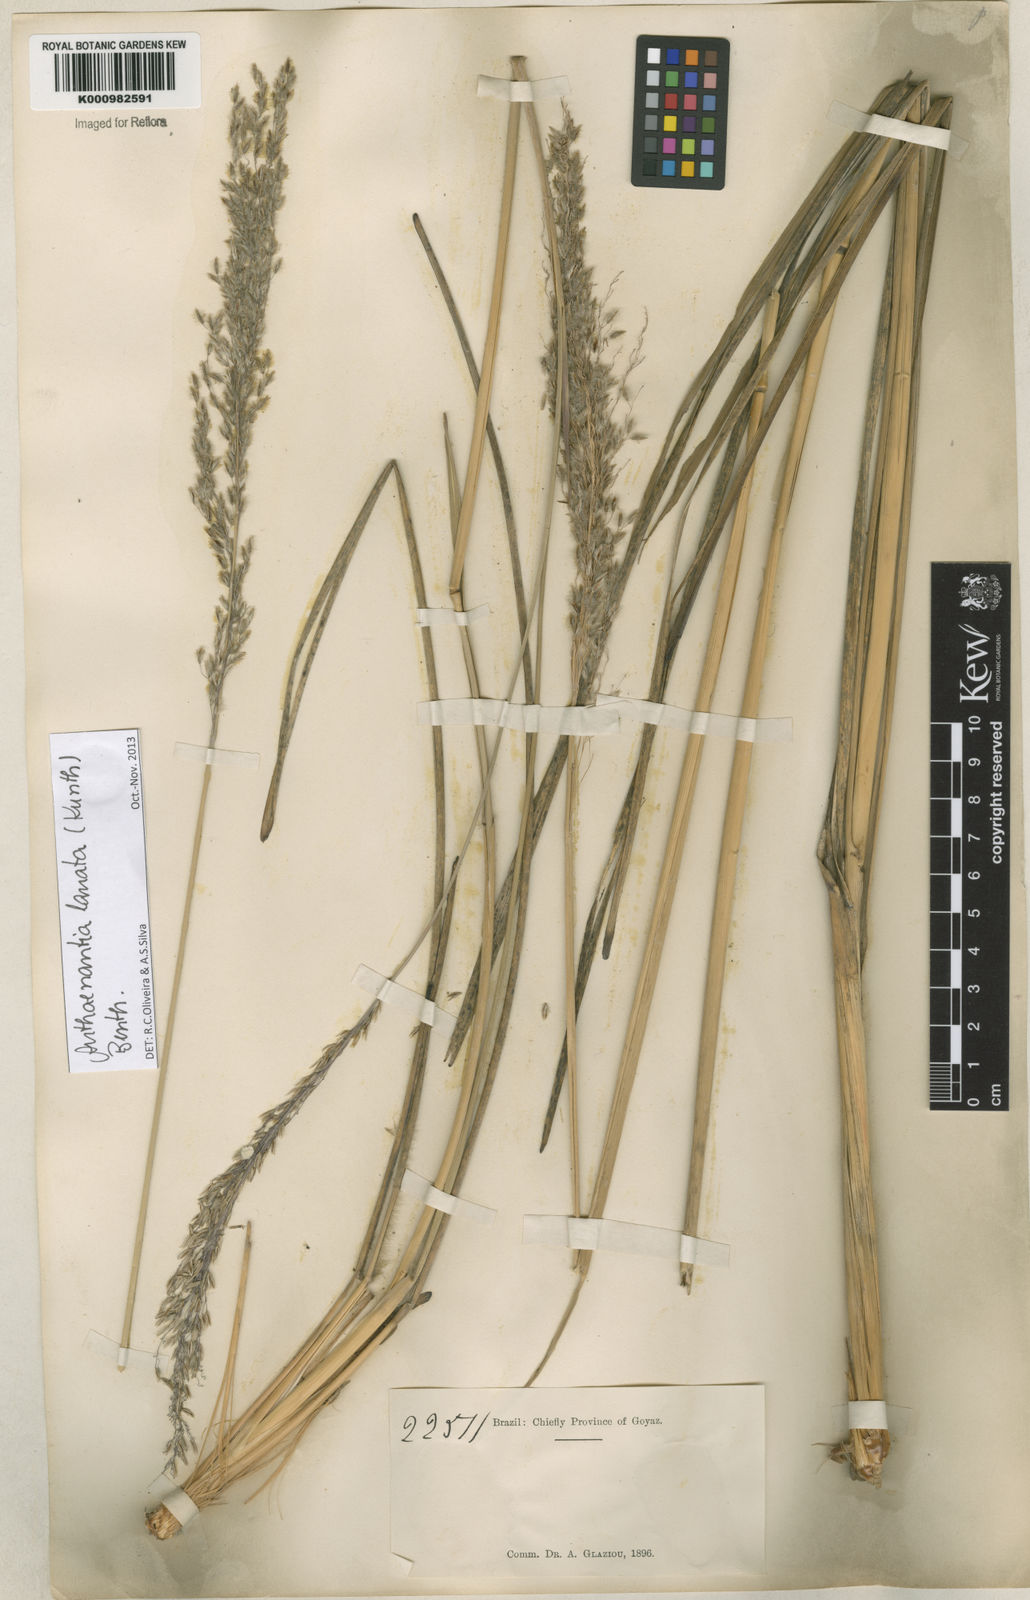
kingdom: Plantae
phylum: Tracheophyta
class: Liliopsida
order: Poales
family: Poaceae
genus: Anthenantia
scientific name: Anthenantia lanata
